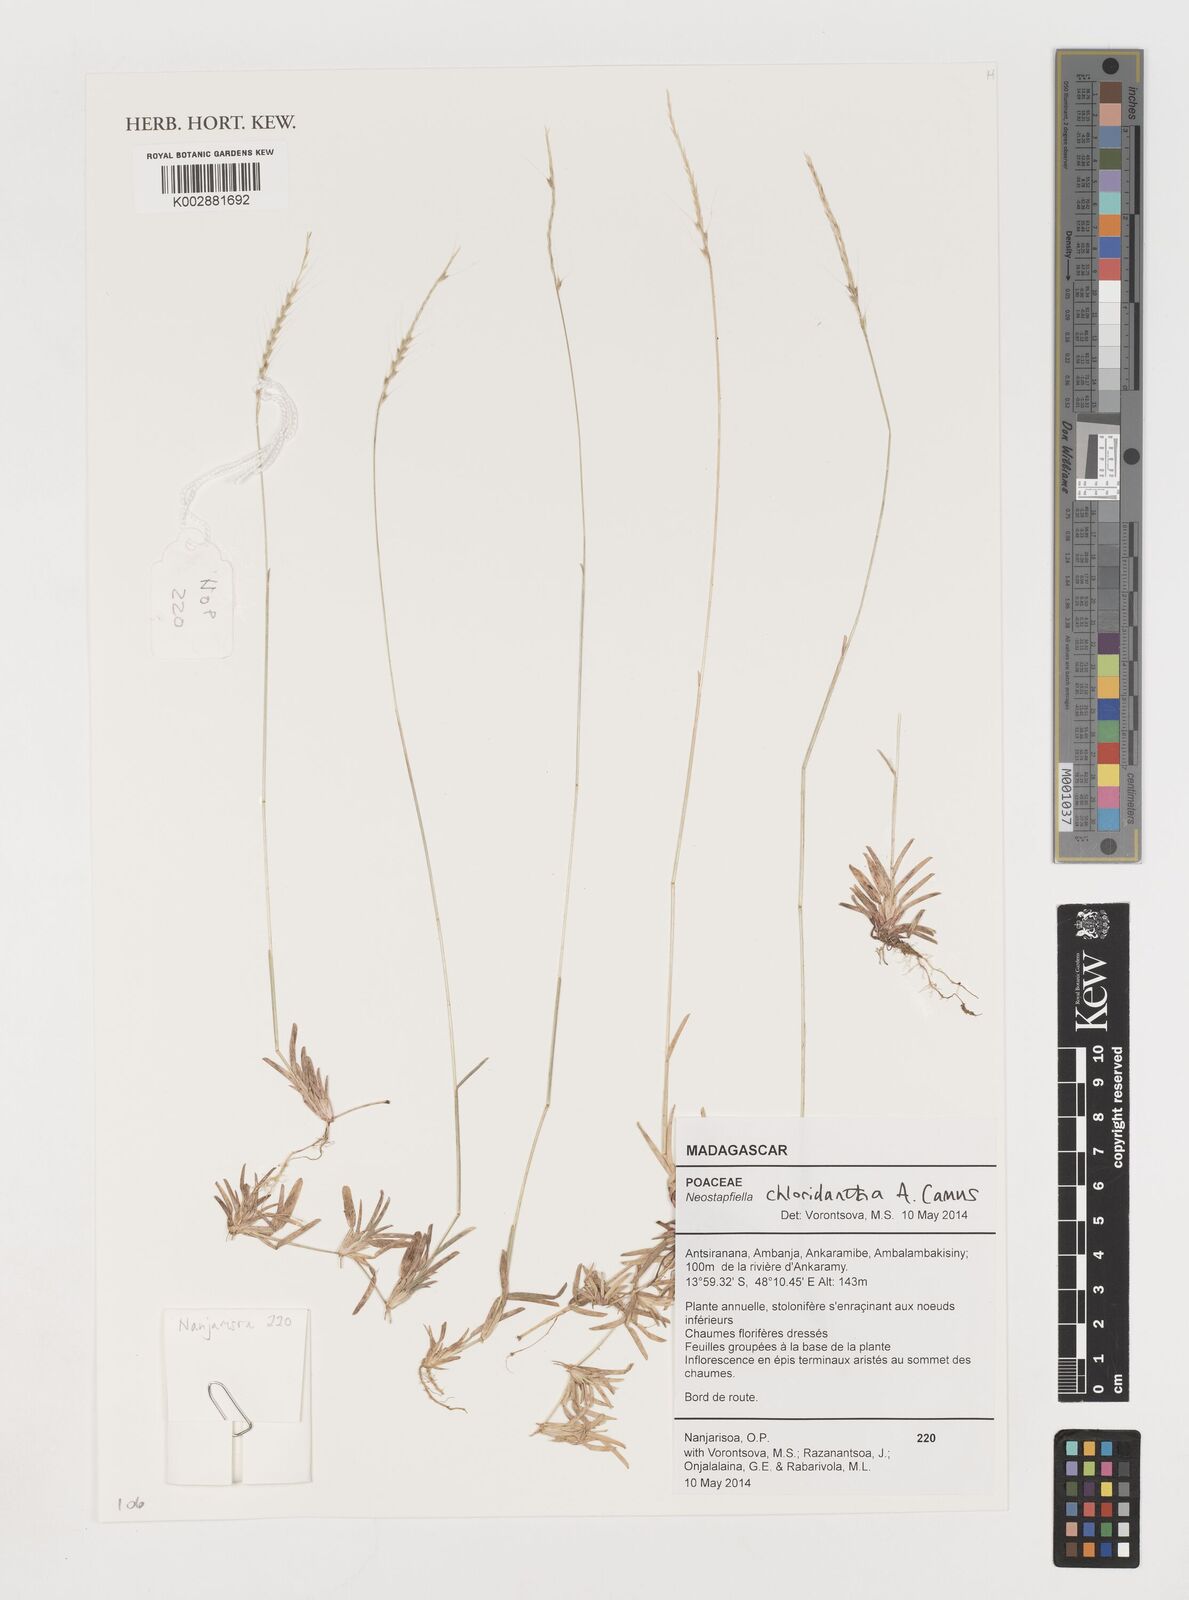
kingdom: Plantae
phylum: Tracheophyta
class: Liliopsida
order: Poales
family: Poaceae
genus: Neostapfiella
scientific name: Neostapfiella chloridiantha
